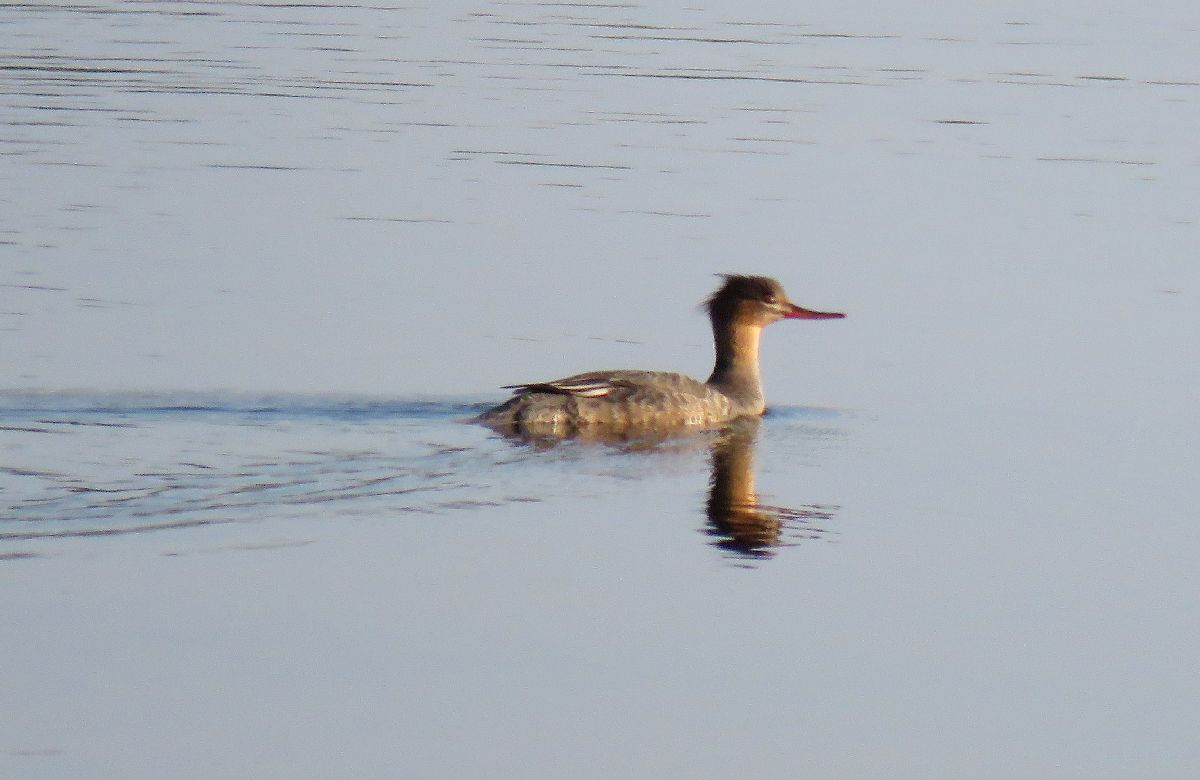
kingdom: Animalia
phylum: Chordata
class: Aves
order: Anseriformes
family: Anatidae
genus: Mergus
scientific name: Mergus serrator
